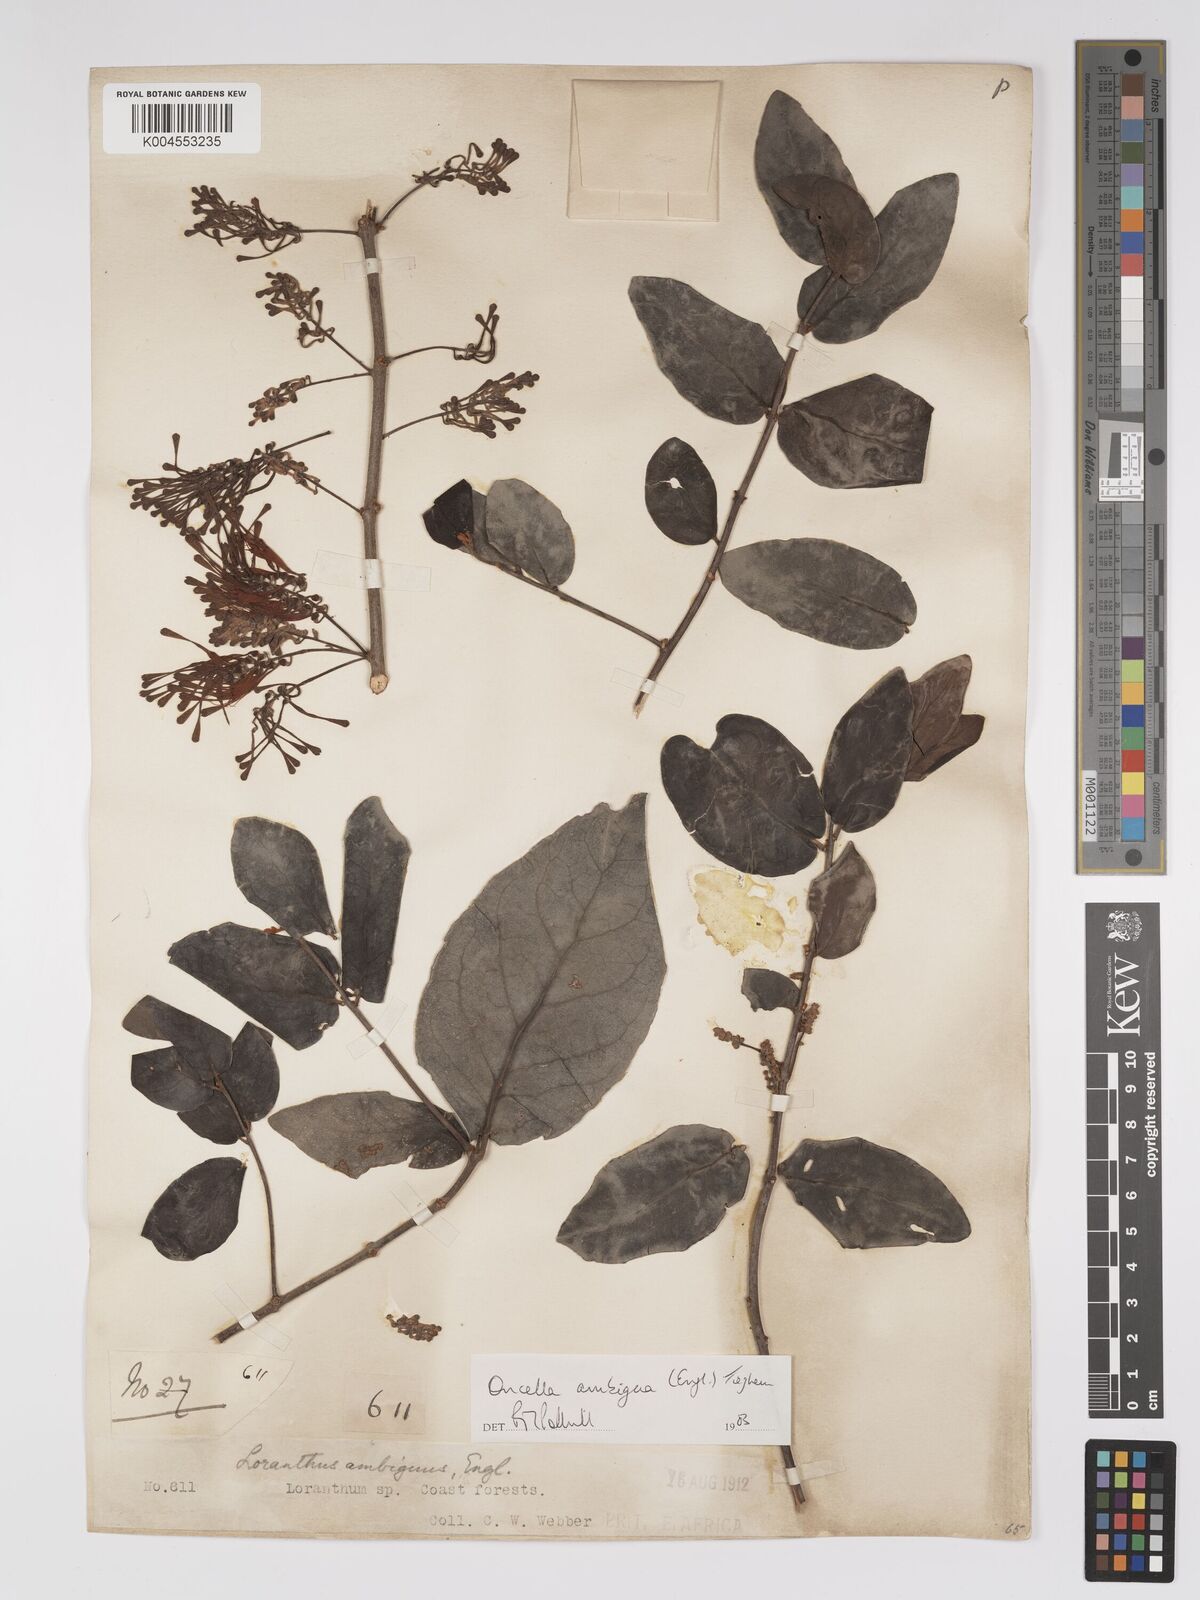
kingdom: Plantae
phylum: Tracheophyta
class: Magnoliopsida
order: Santalales
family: Loranthaceae
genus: Oncella
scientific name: Oncella ambigua
